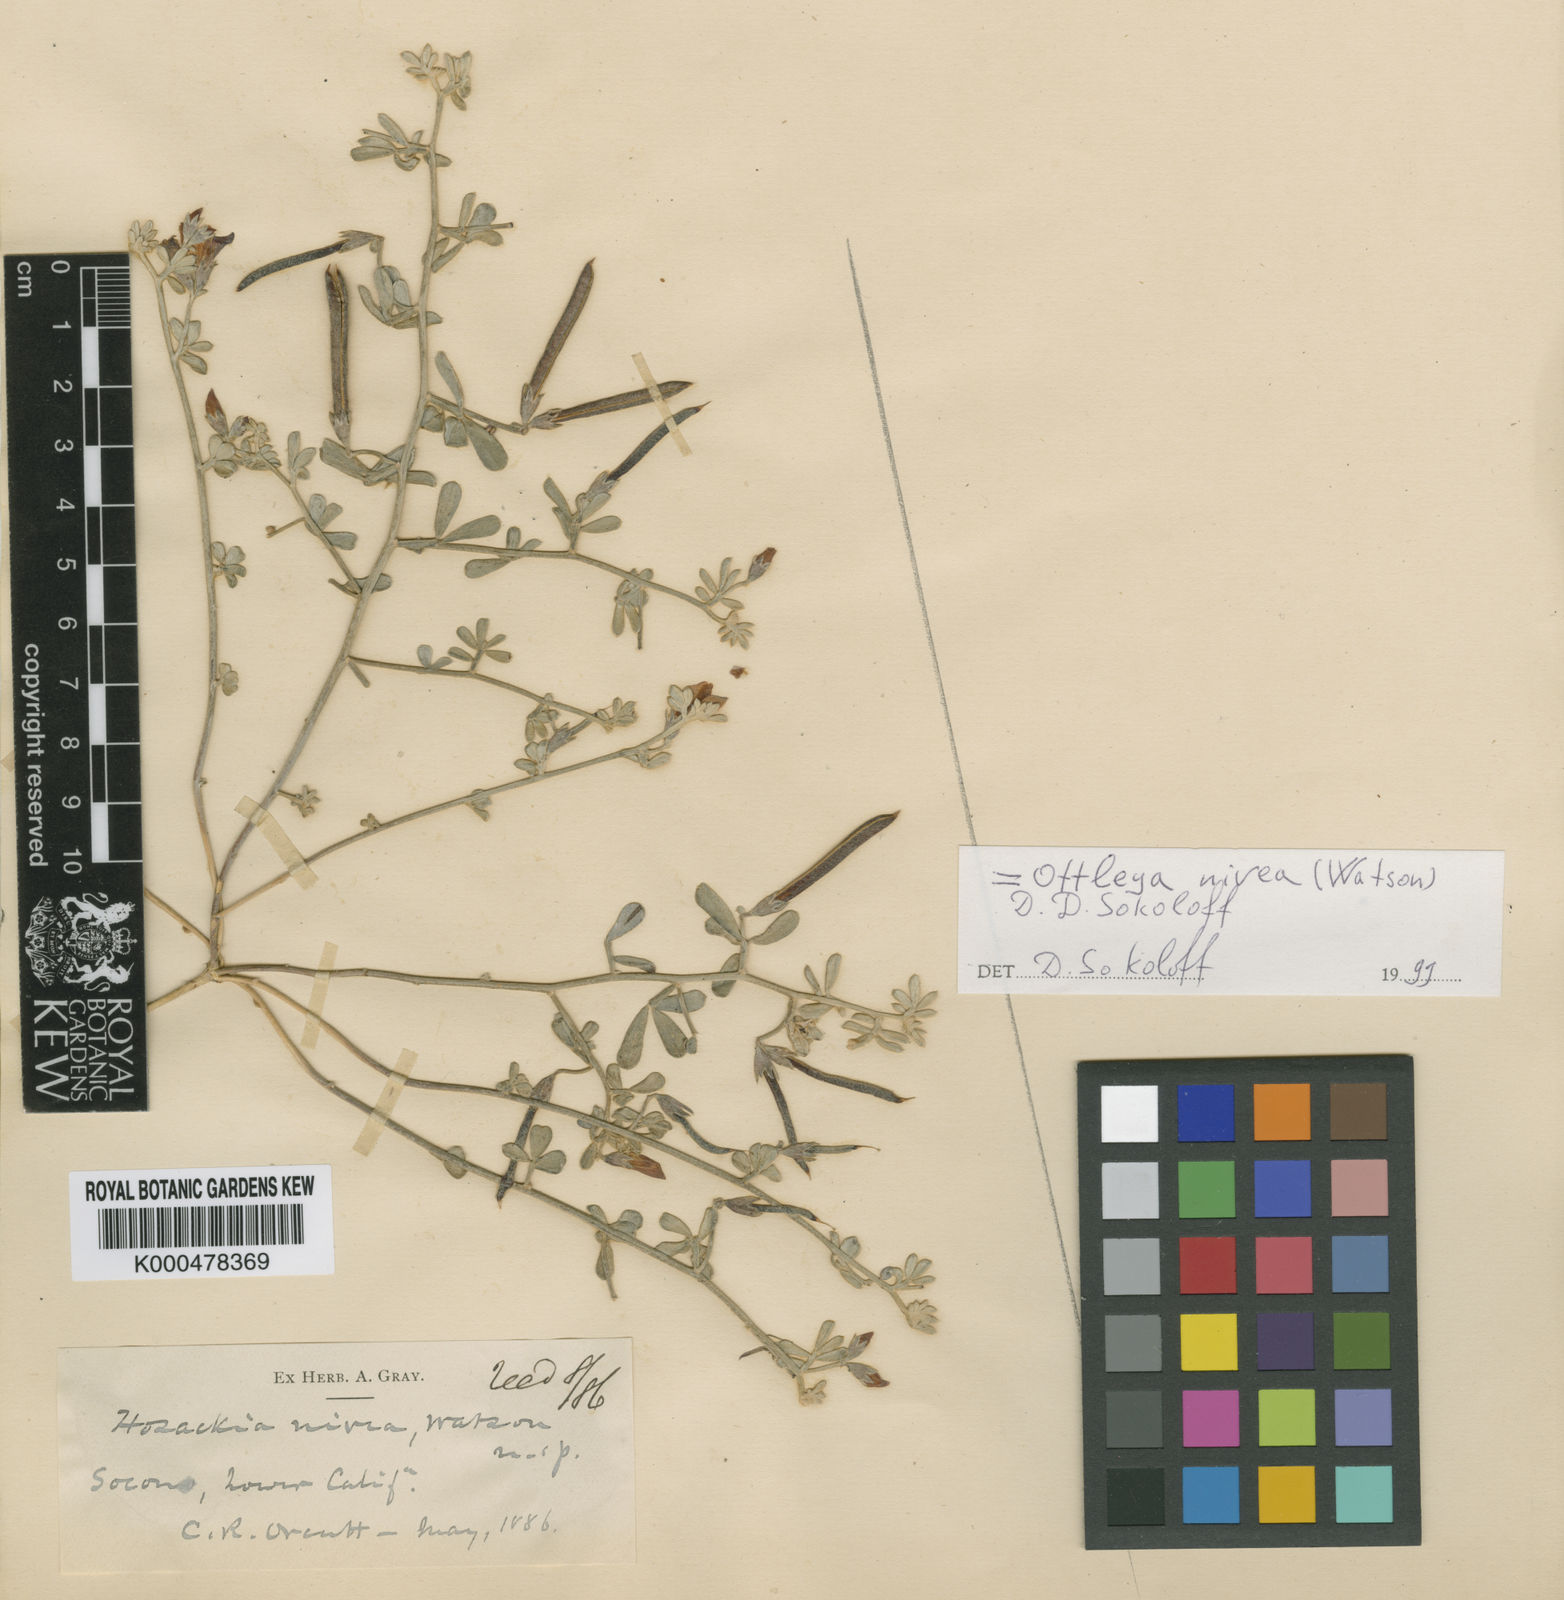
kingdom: Plantae
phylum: Tracheophyta
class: Magnoliopsida
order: Fabales
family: Fabaceae
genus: Acmispon
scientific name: Acmispon argophyllus
